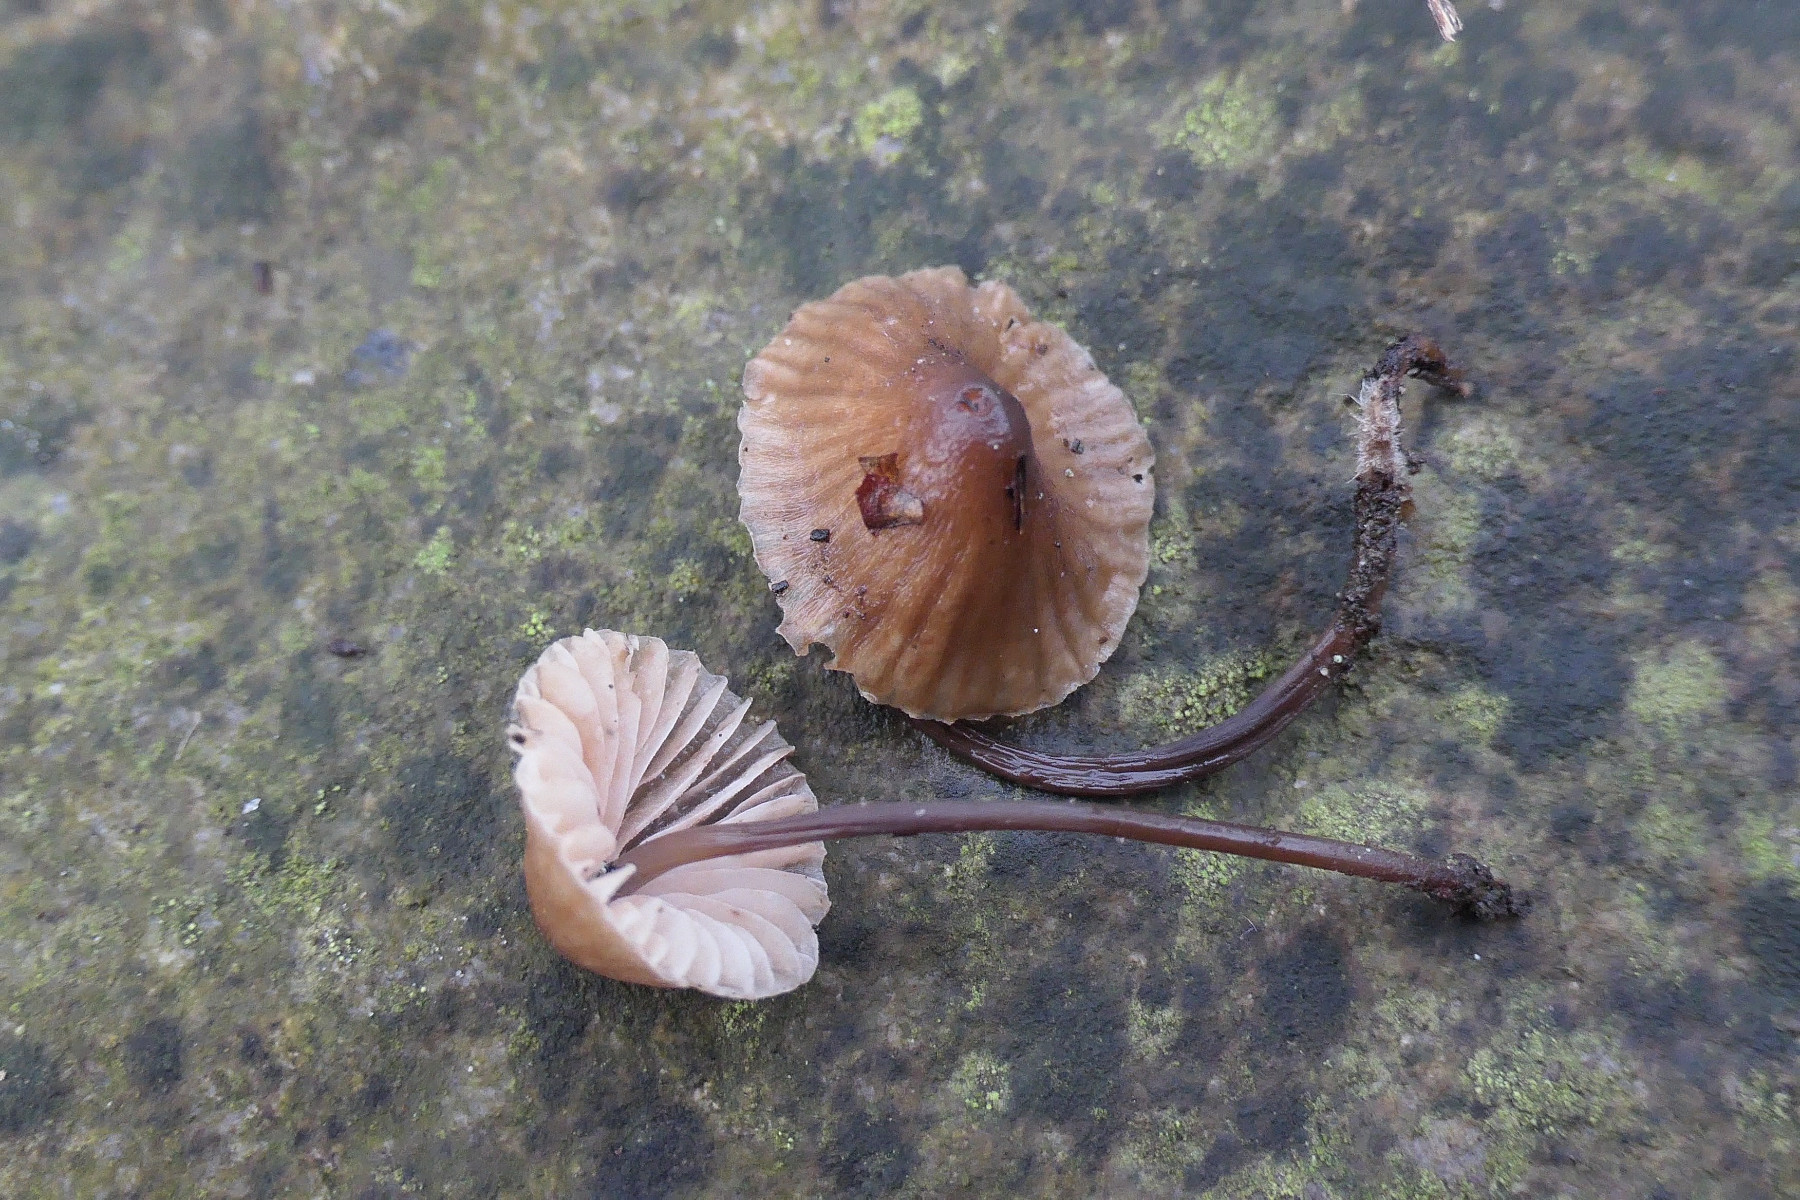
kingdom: Fungi
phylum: Basidiomycota
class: Agaricomycetes
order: Agaricales
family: Mycenaceae
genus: Mycena
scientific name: Mycena erubescens
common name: galde-huesvamp
